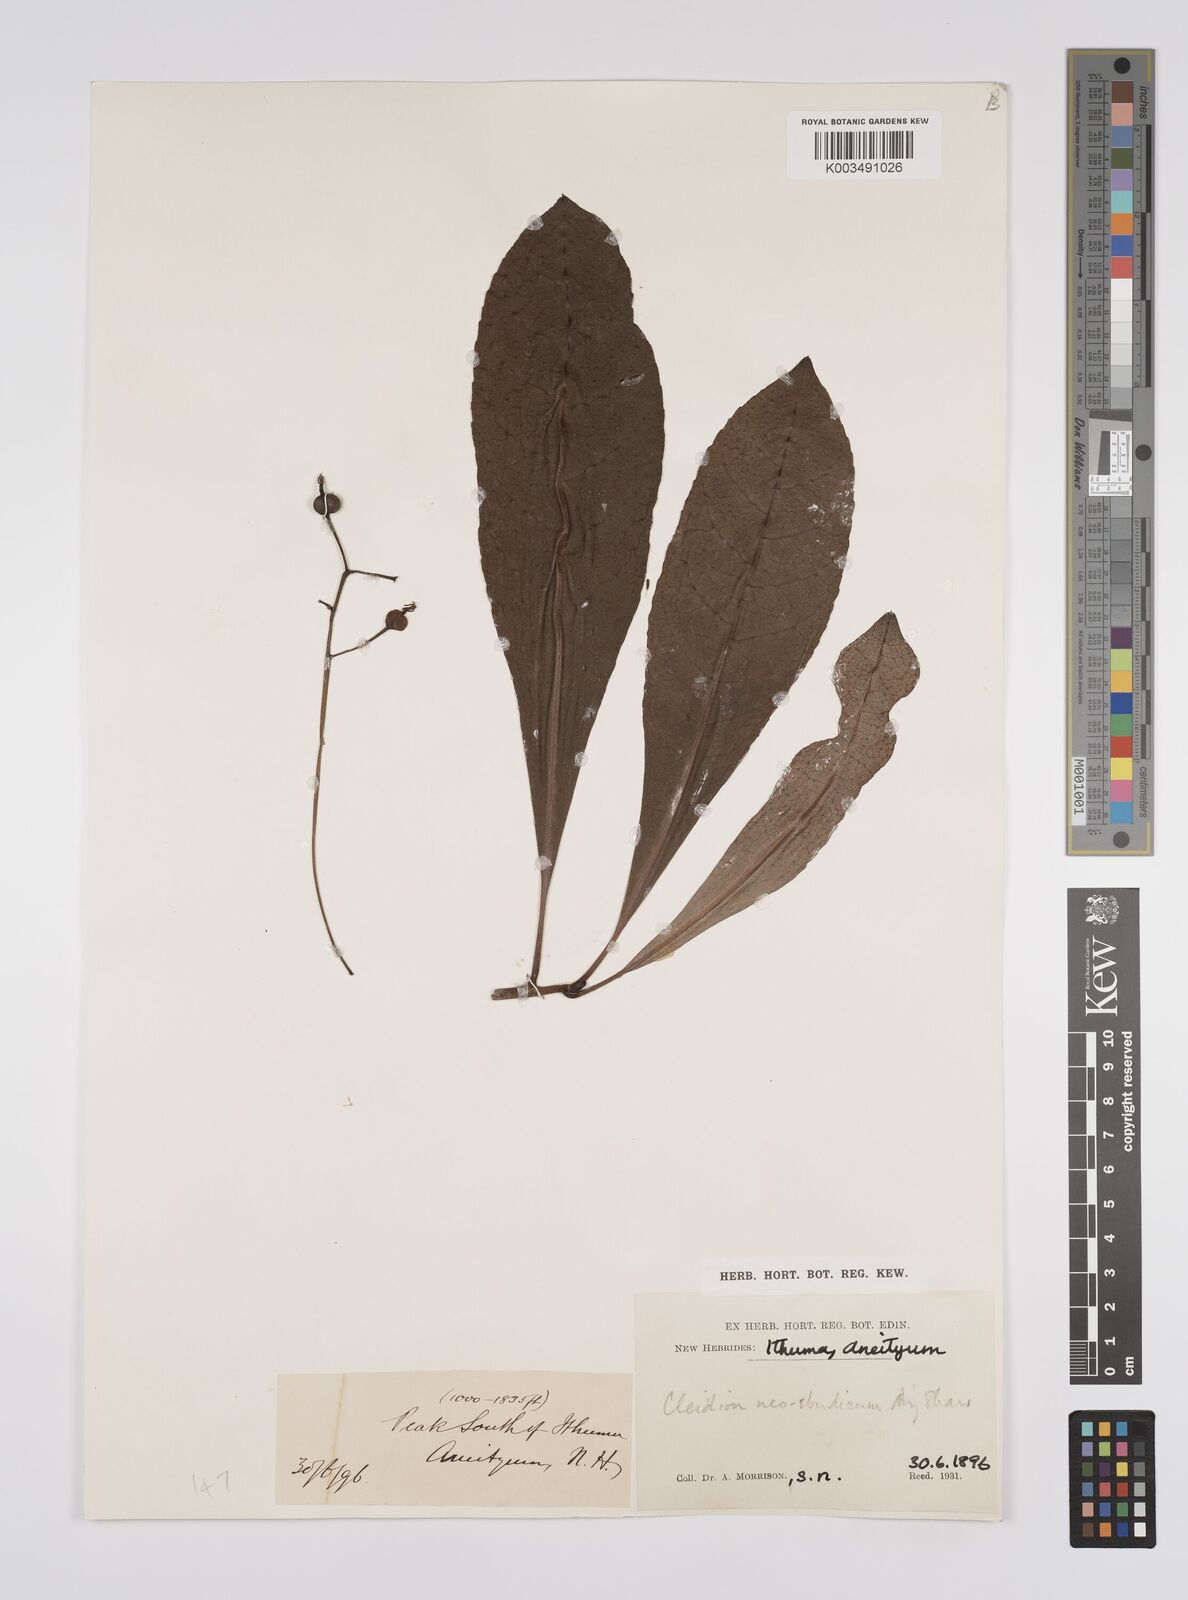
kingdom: Plantae
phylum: Tracheophyta
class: Magnoliopsida
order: Malpighiales
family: Euphorbiaceae
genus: Cleidion
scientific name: Cleidion neoebudicum
